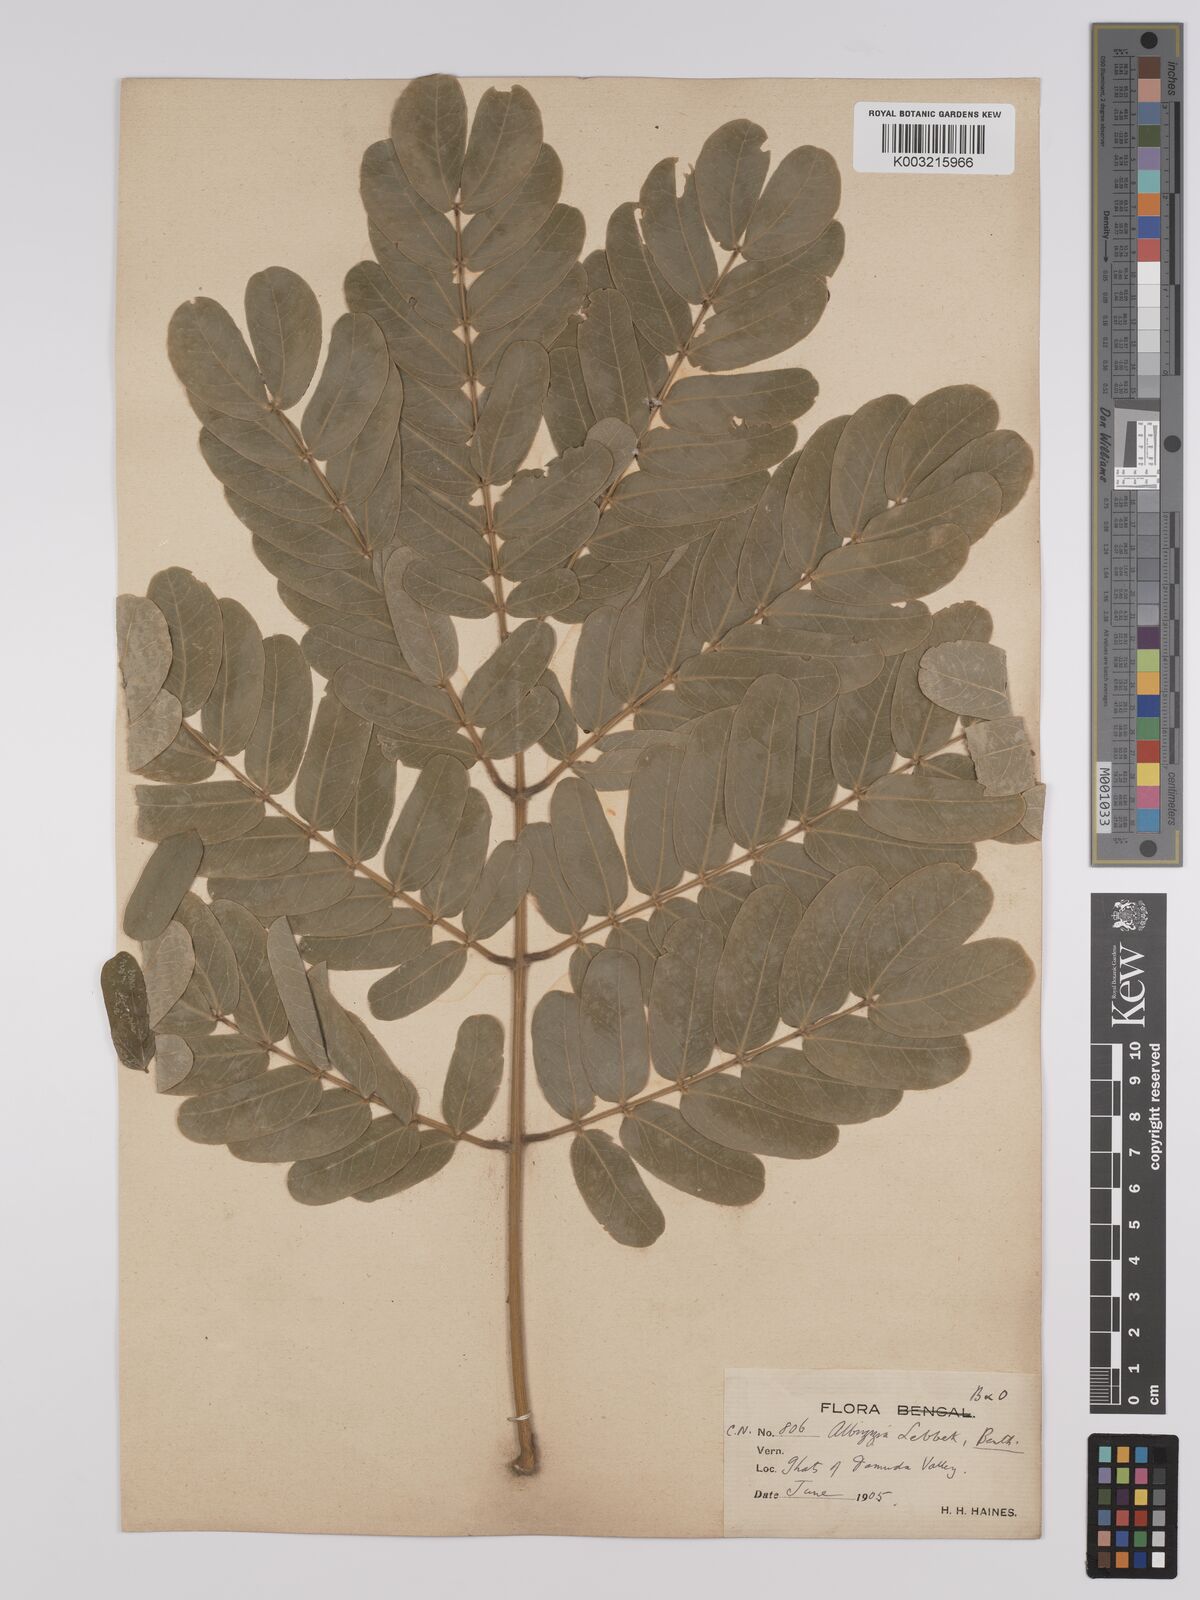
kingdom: Plantae
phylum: Tracheophyta
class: Magnoliopsida
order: Fabales
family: Fabaceae
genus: Albizia
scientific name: Albizia lebbeck
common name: Woman's tongue
